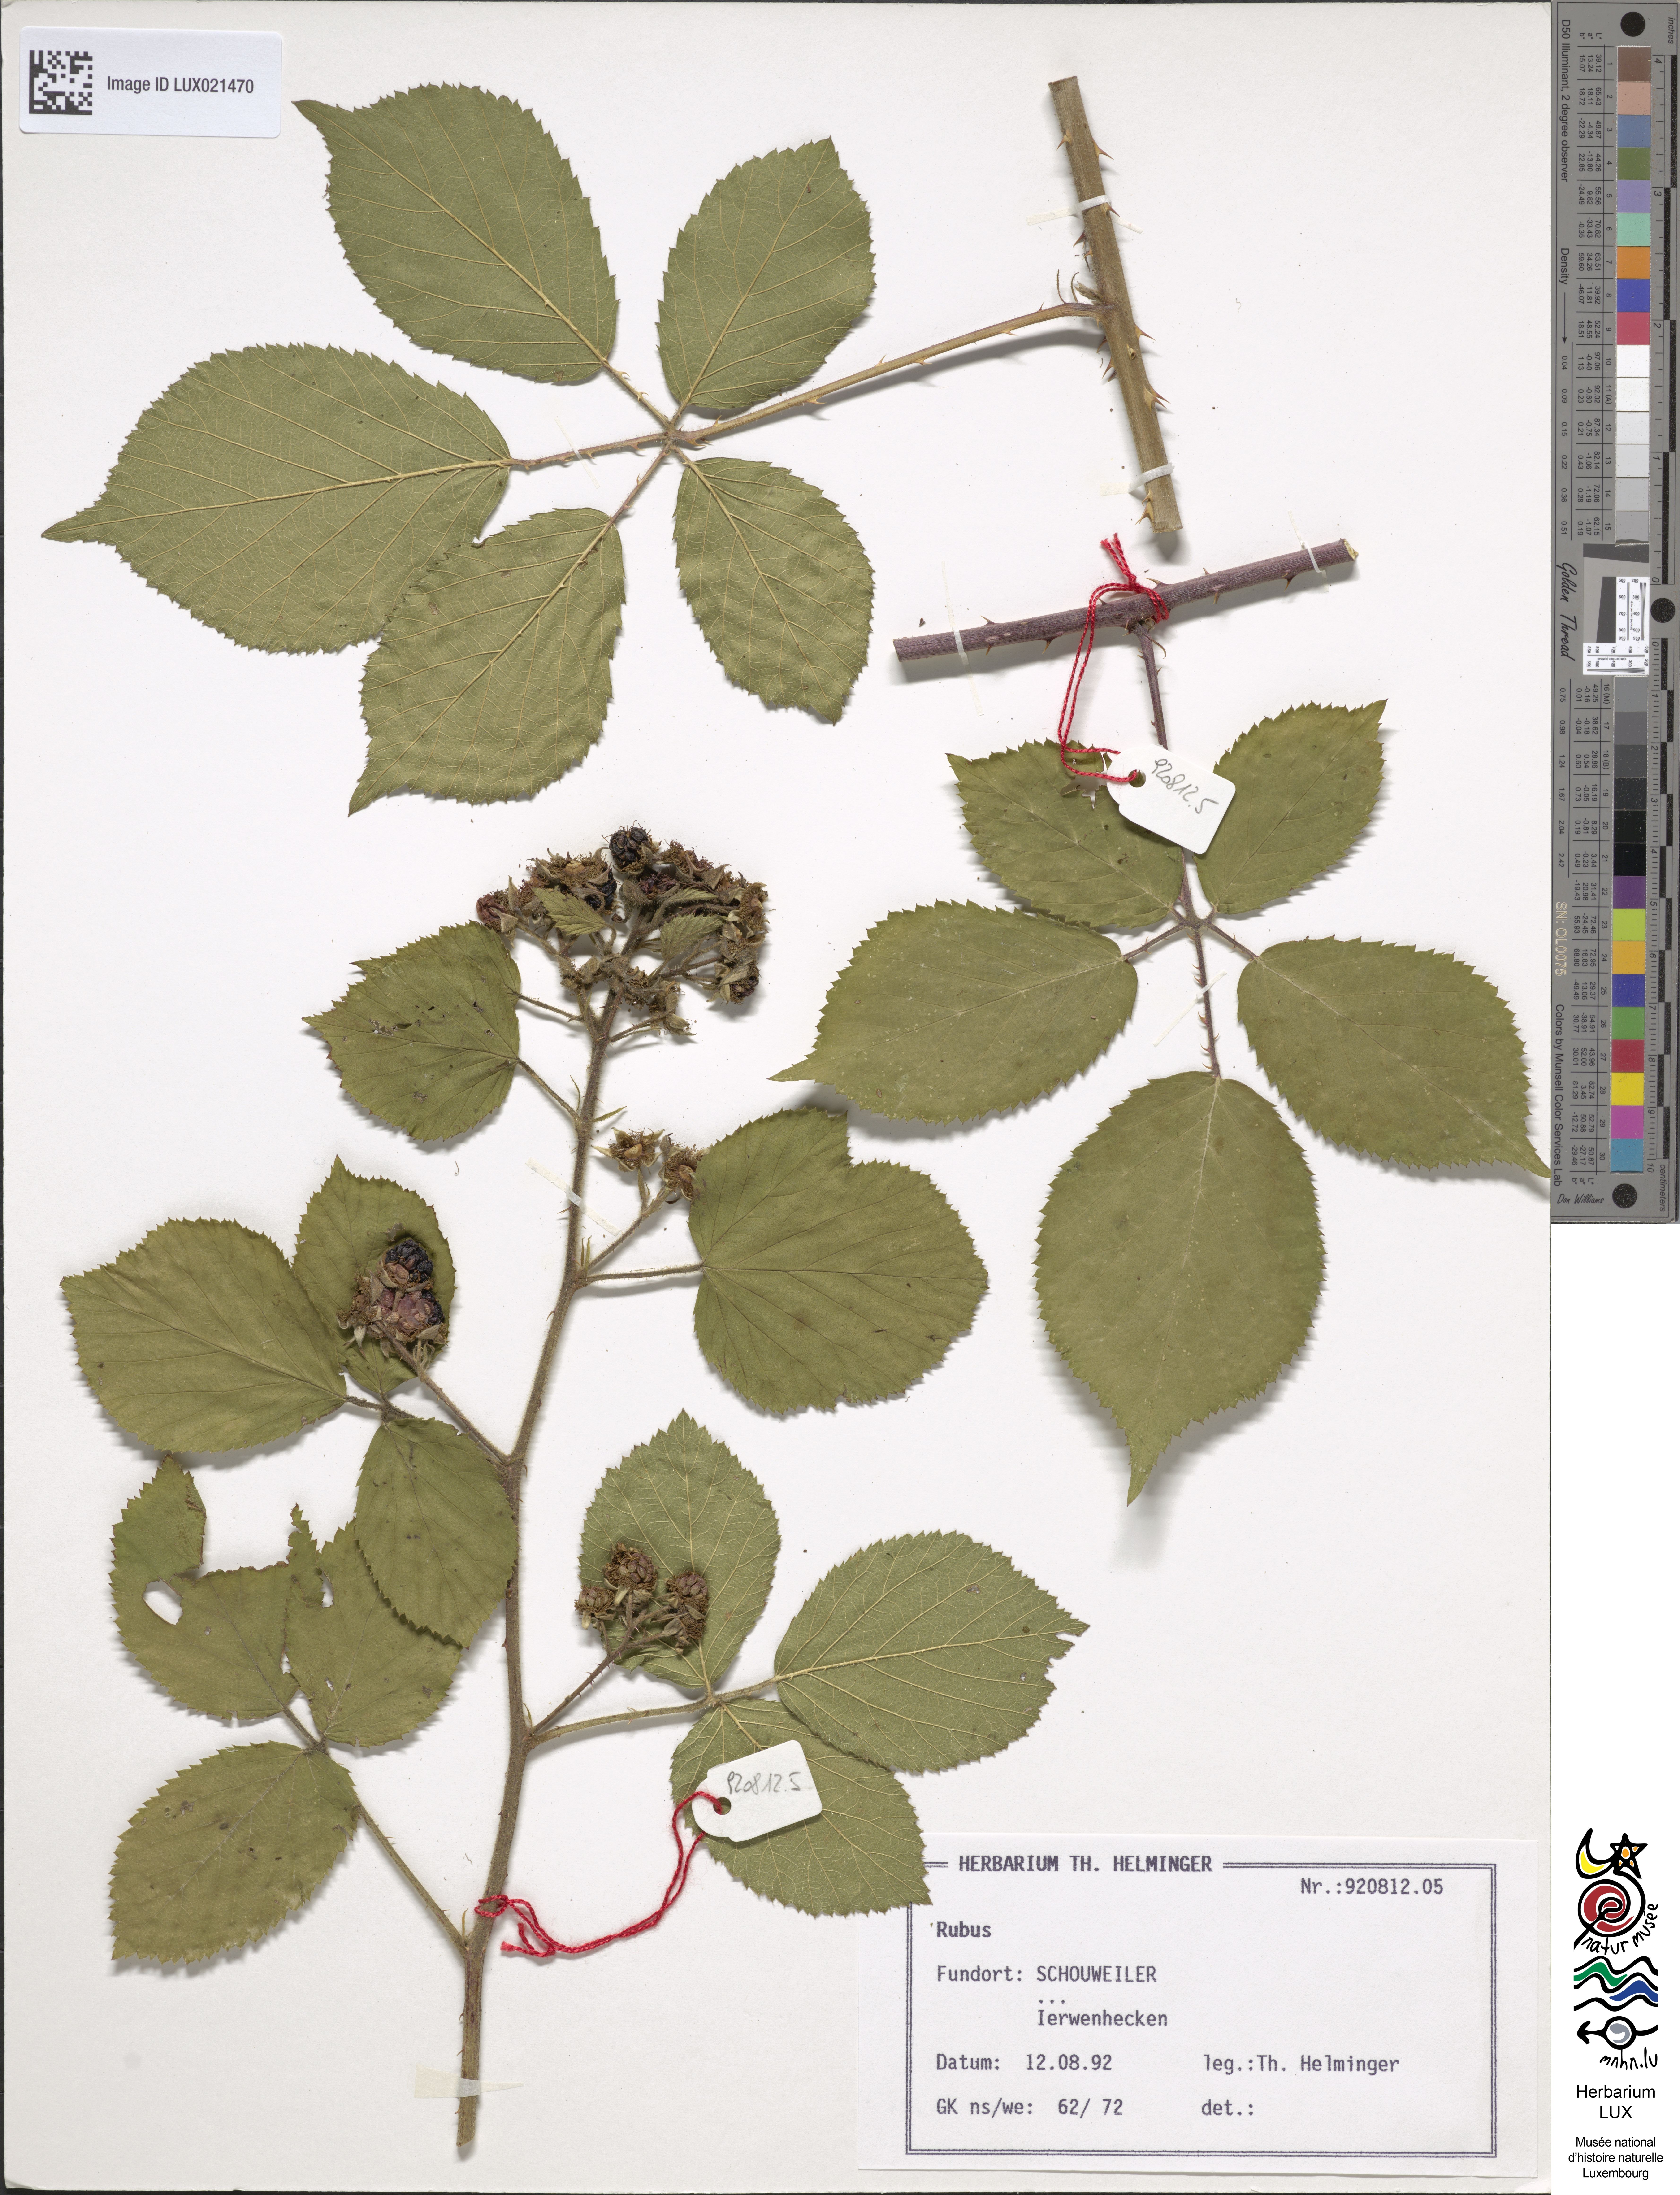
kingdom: Plantae
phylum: Tracheophyta
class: Magnoliopsida
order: Rosales
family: Rosaceae
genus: Rubus
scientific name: Rubus
